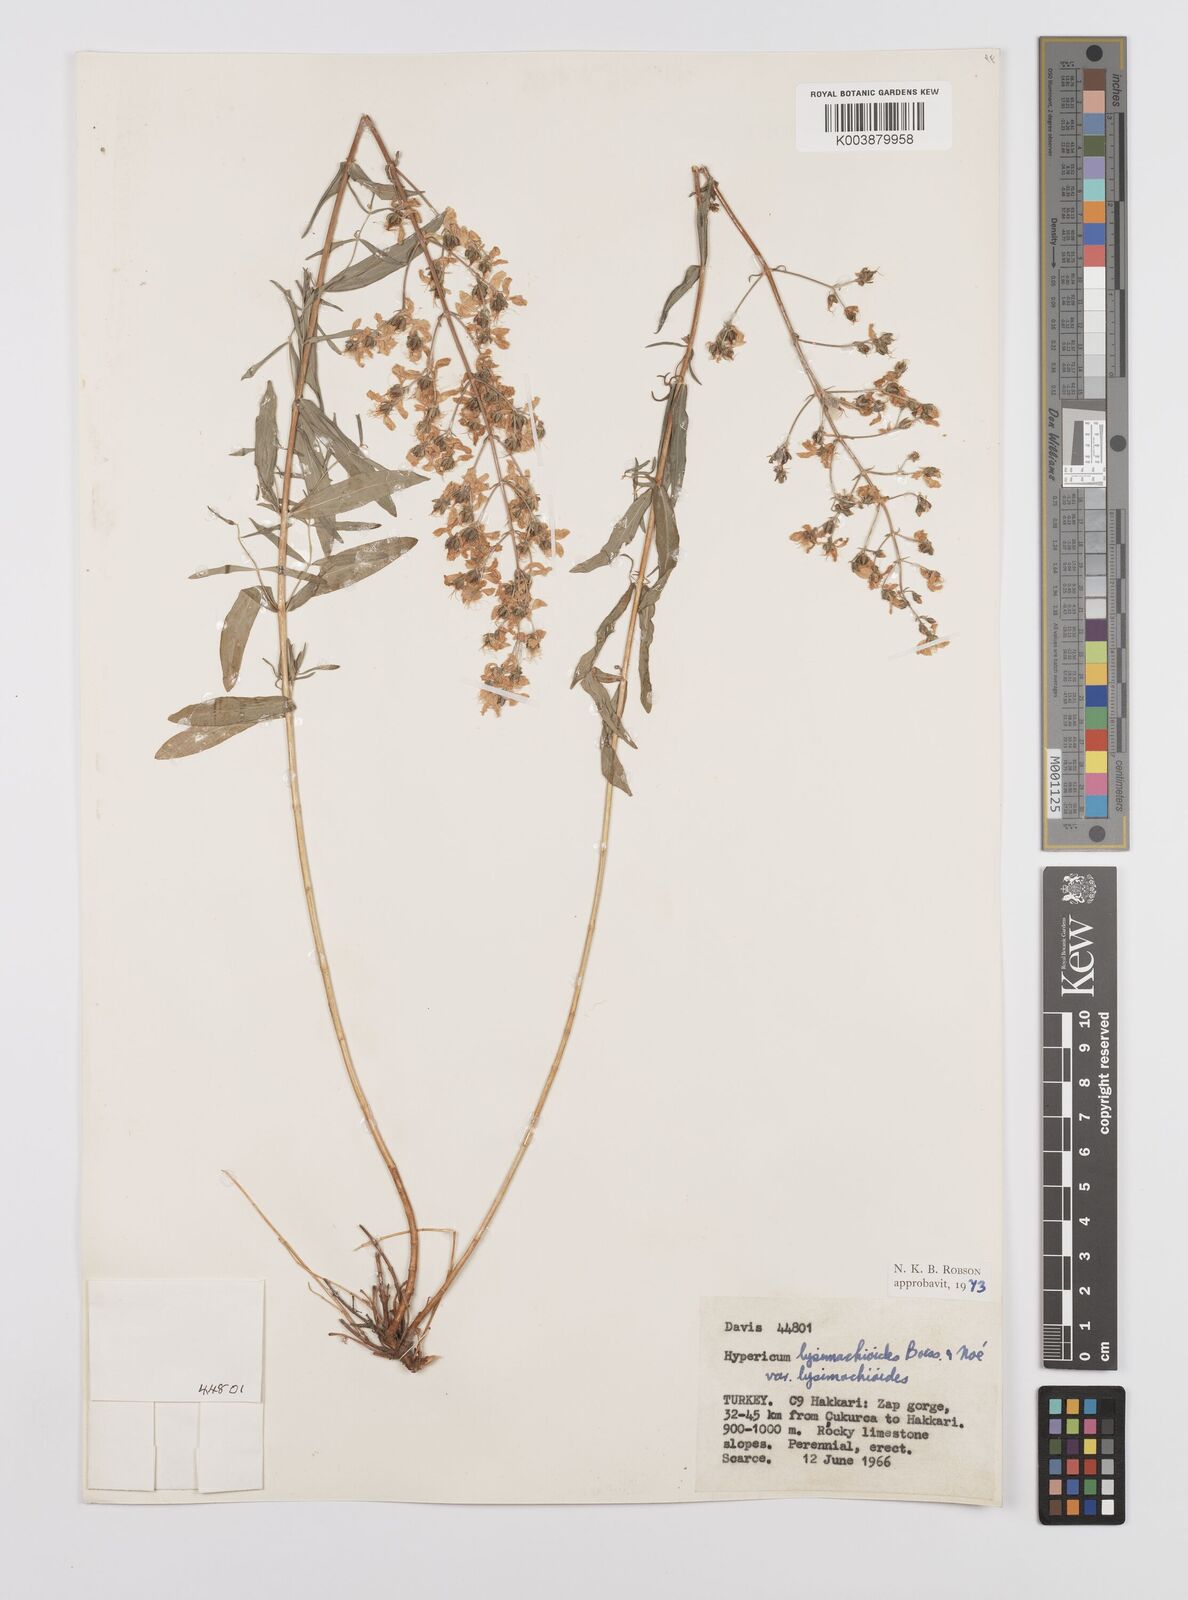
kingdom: Plantae
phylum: Tracheophyta
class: Magnoliopsida
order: Malpighiales
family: Hypericaceae
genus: Hypericum
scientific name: Hypericum lysimachioides
